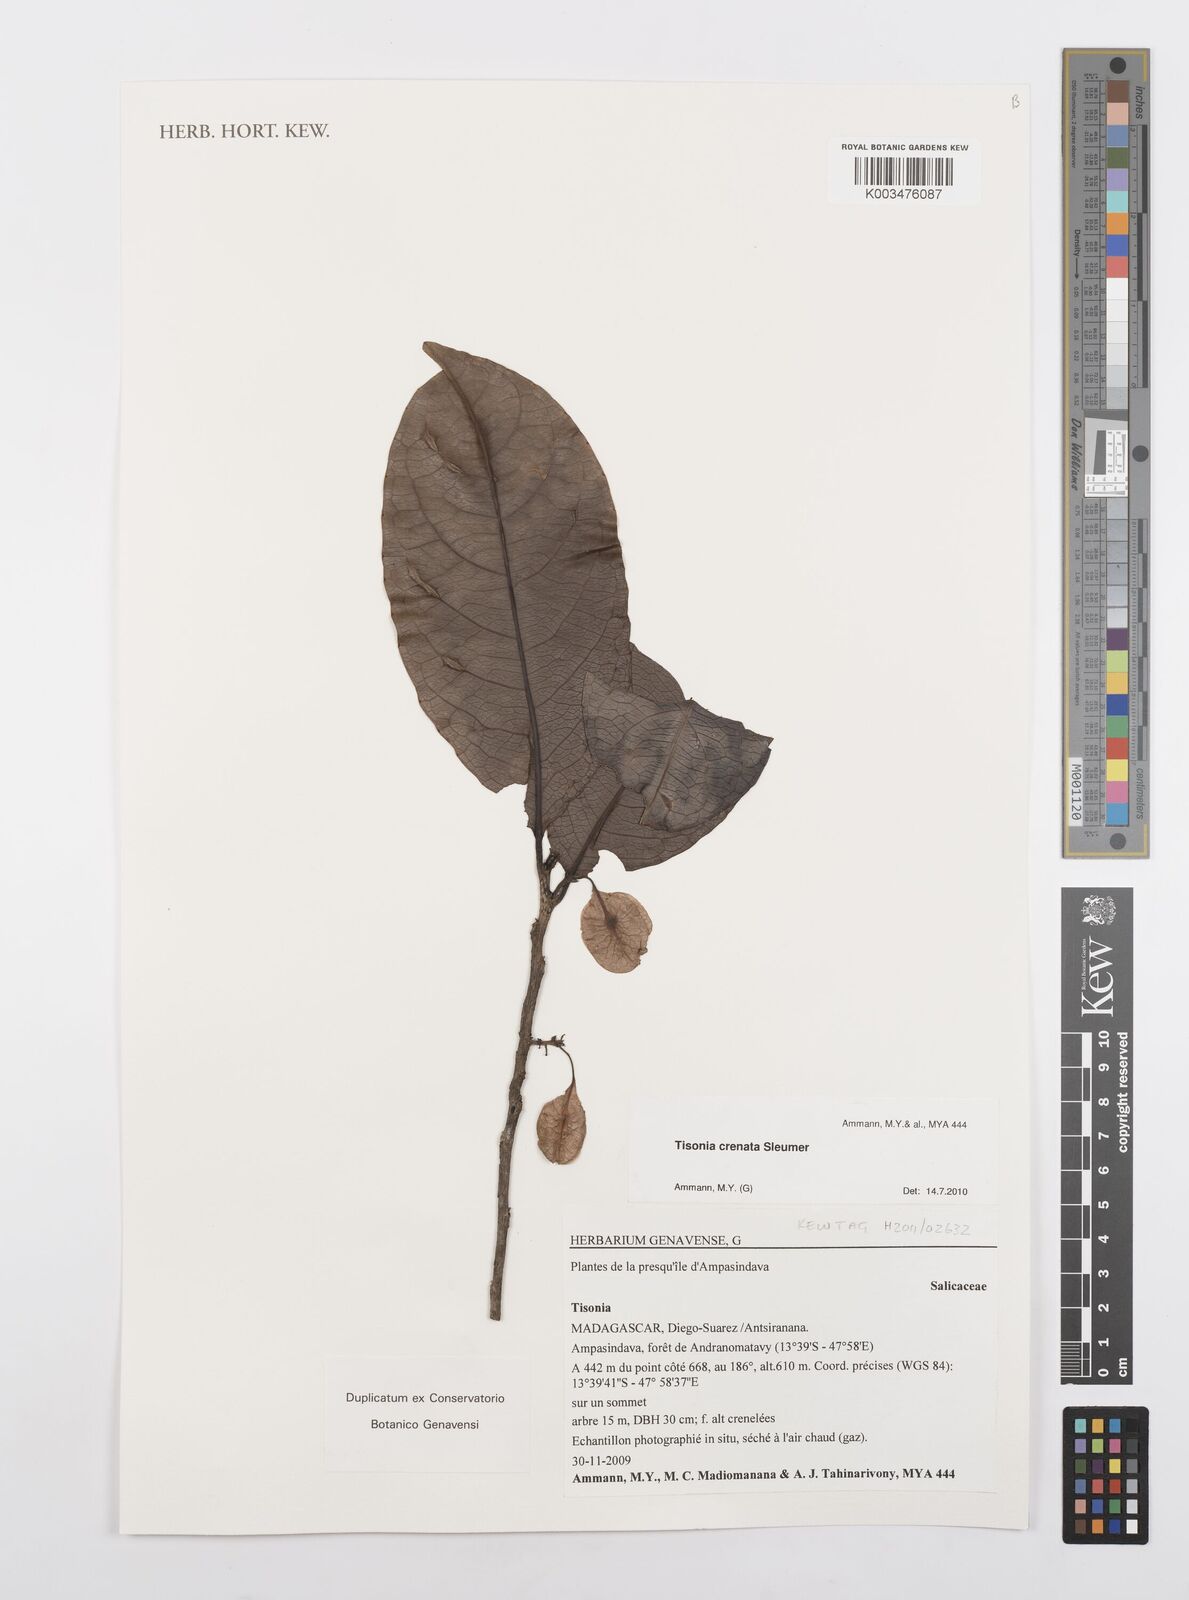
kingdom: Plantae
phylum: Tracheophyta
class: Magnoliopsida
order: Malpighiales
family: Salicaceae
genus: Tisonia
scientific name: Tisonia baronii
